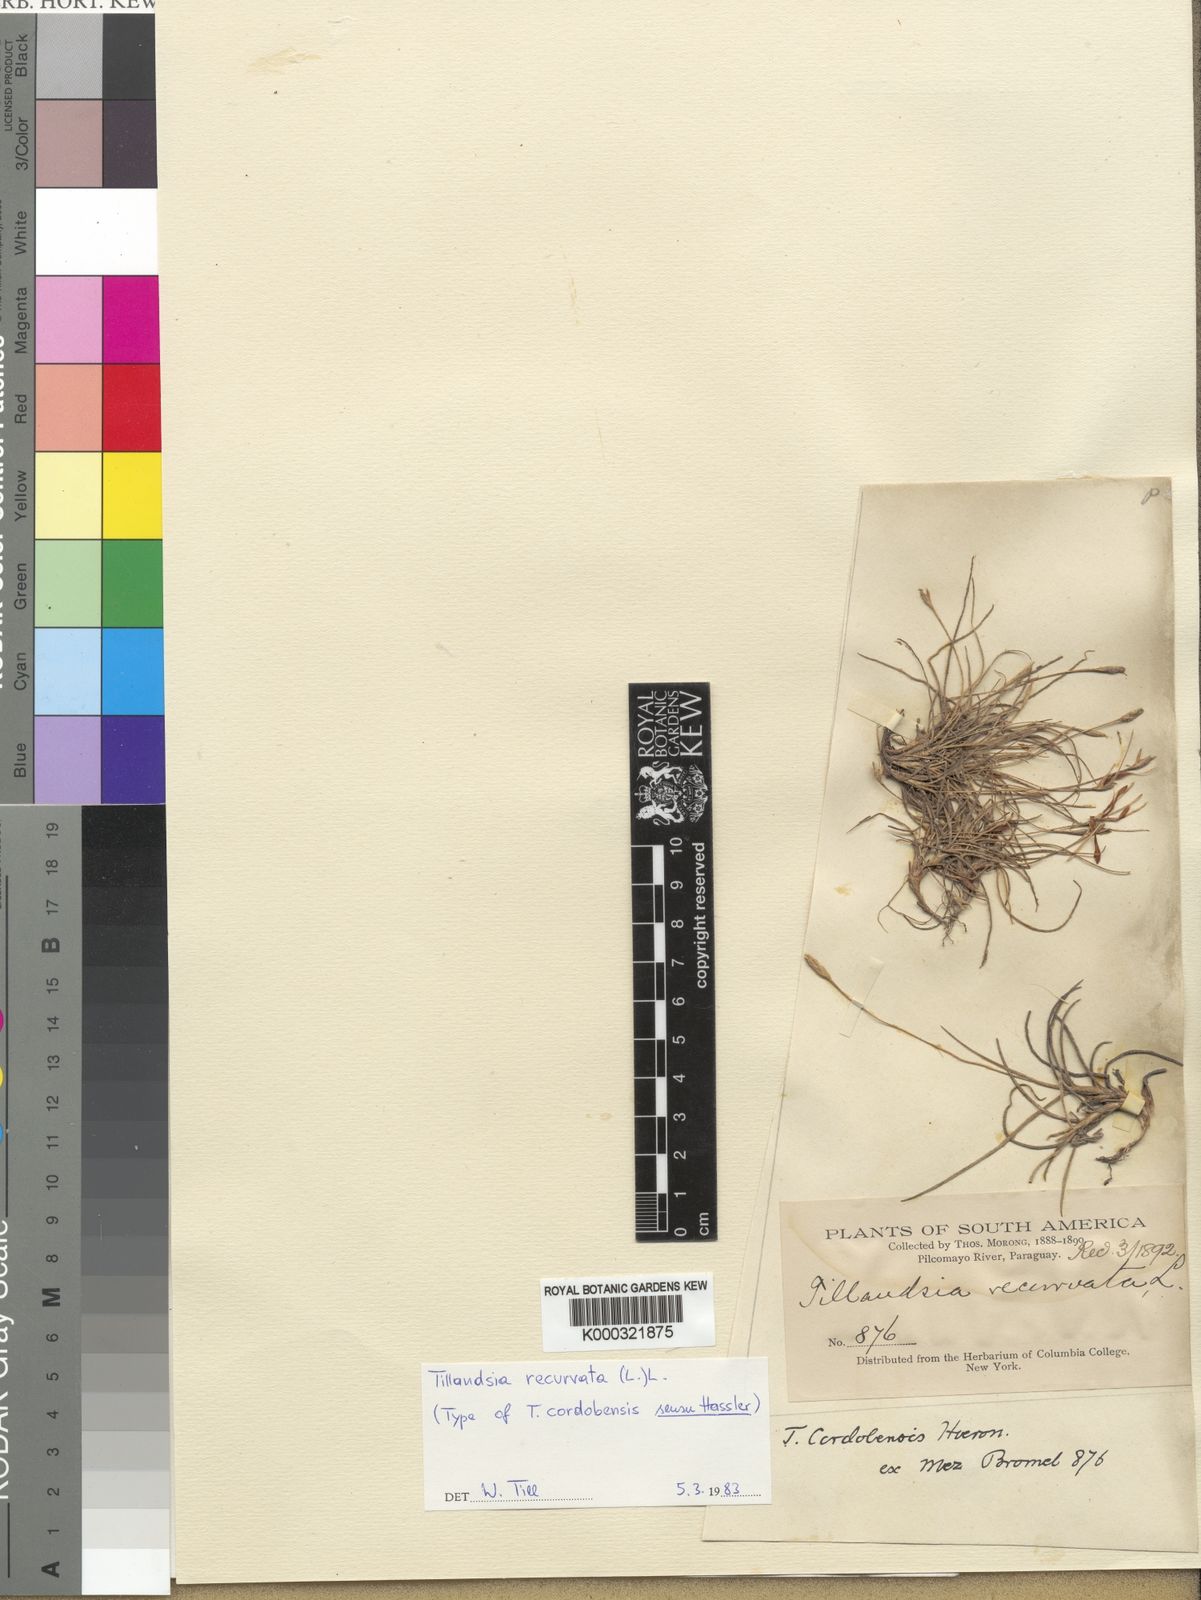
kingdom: Plantae
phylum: Tracheophyta
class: Liliopsida
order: Poales
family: Bromeliaceae
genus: Tillandsia
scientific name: Tillandsia recurvata
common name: Small ballmoss
